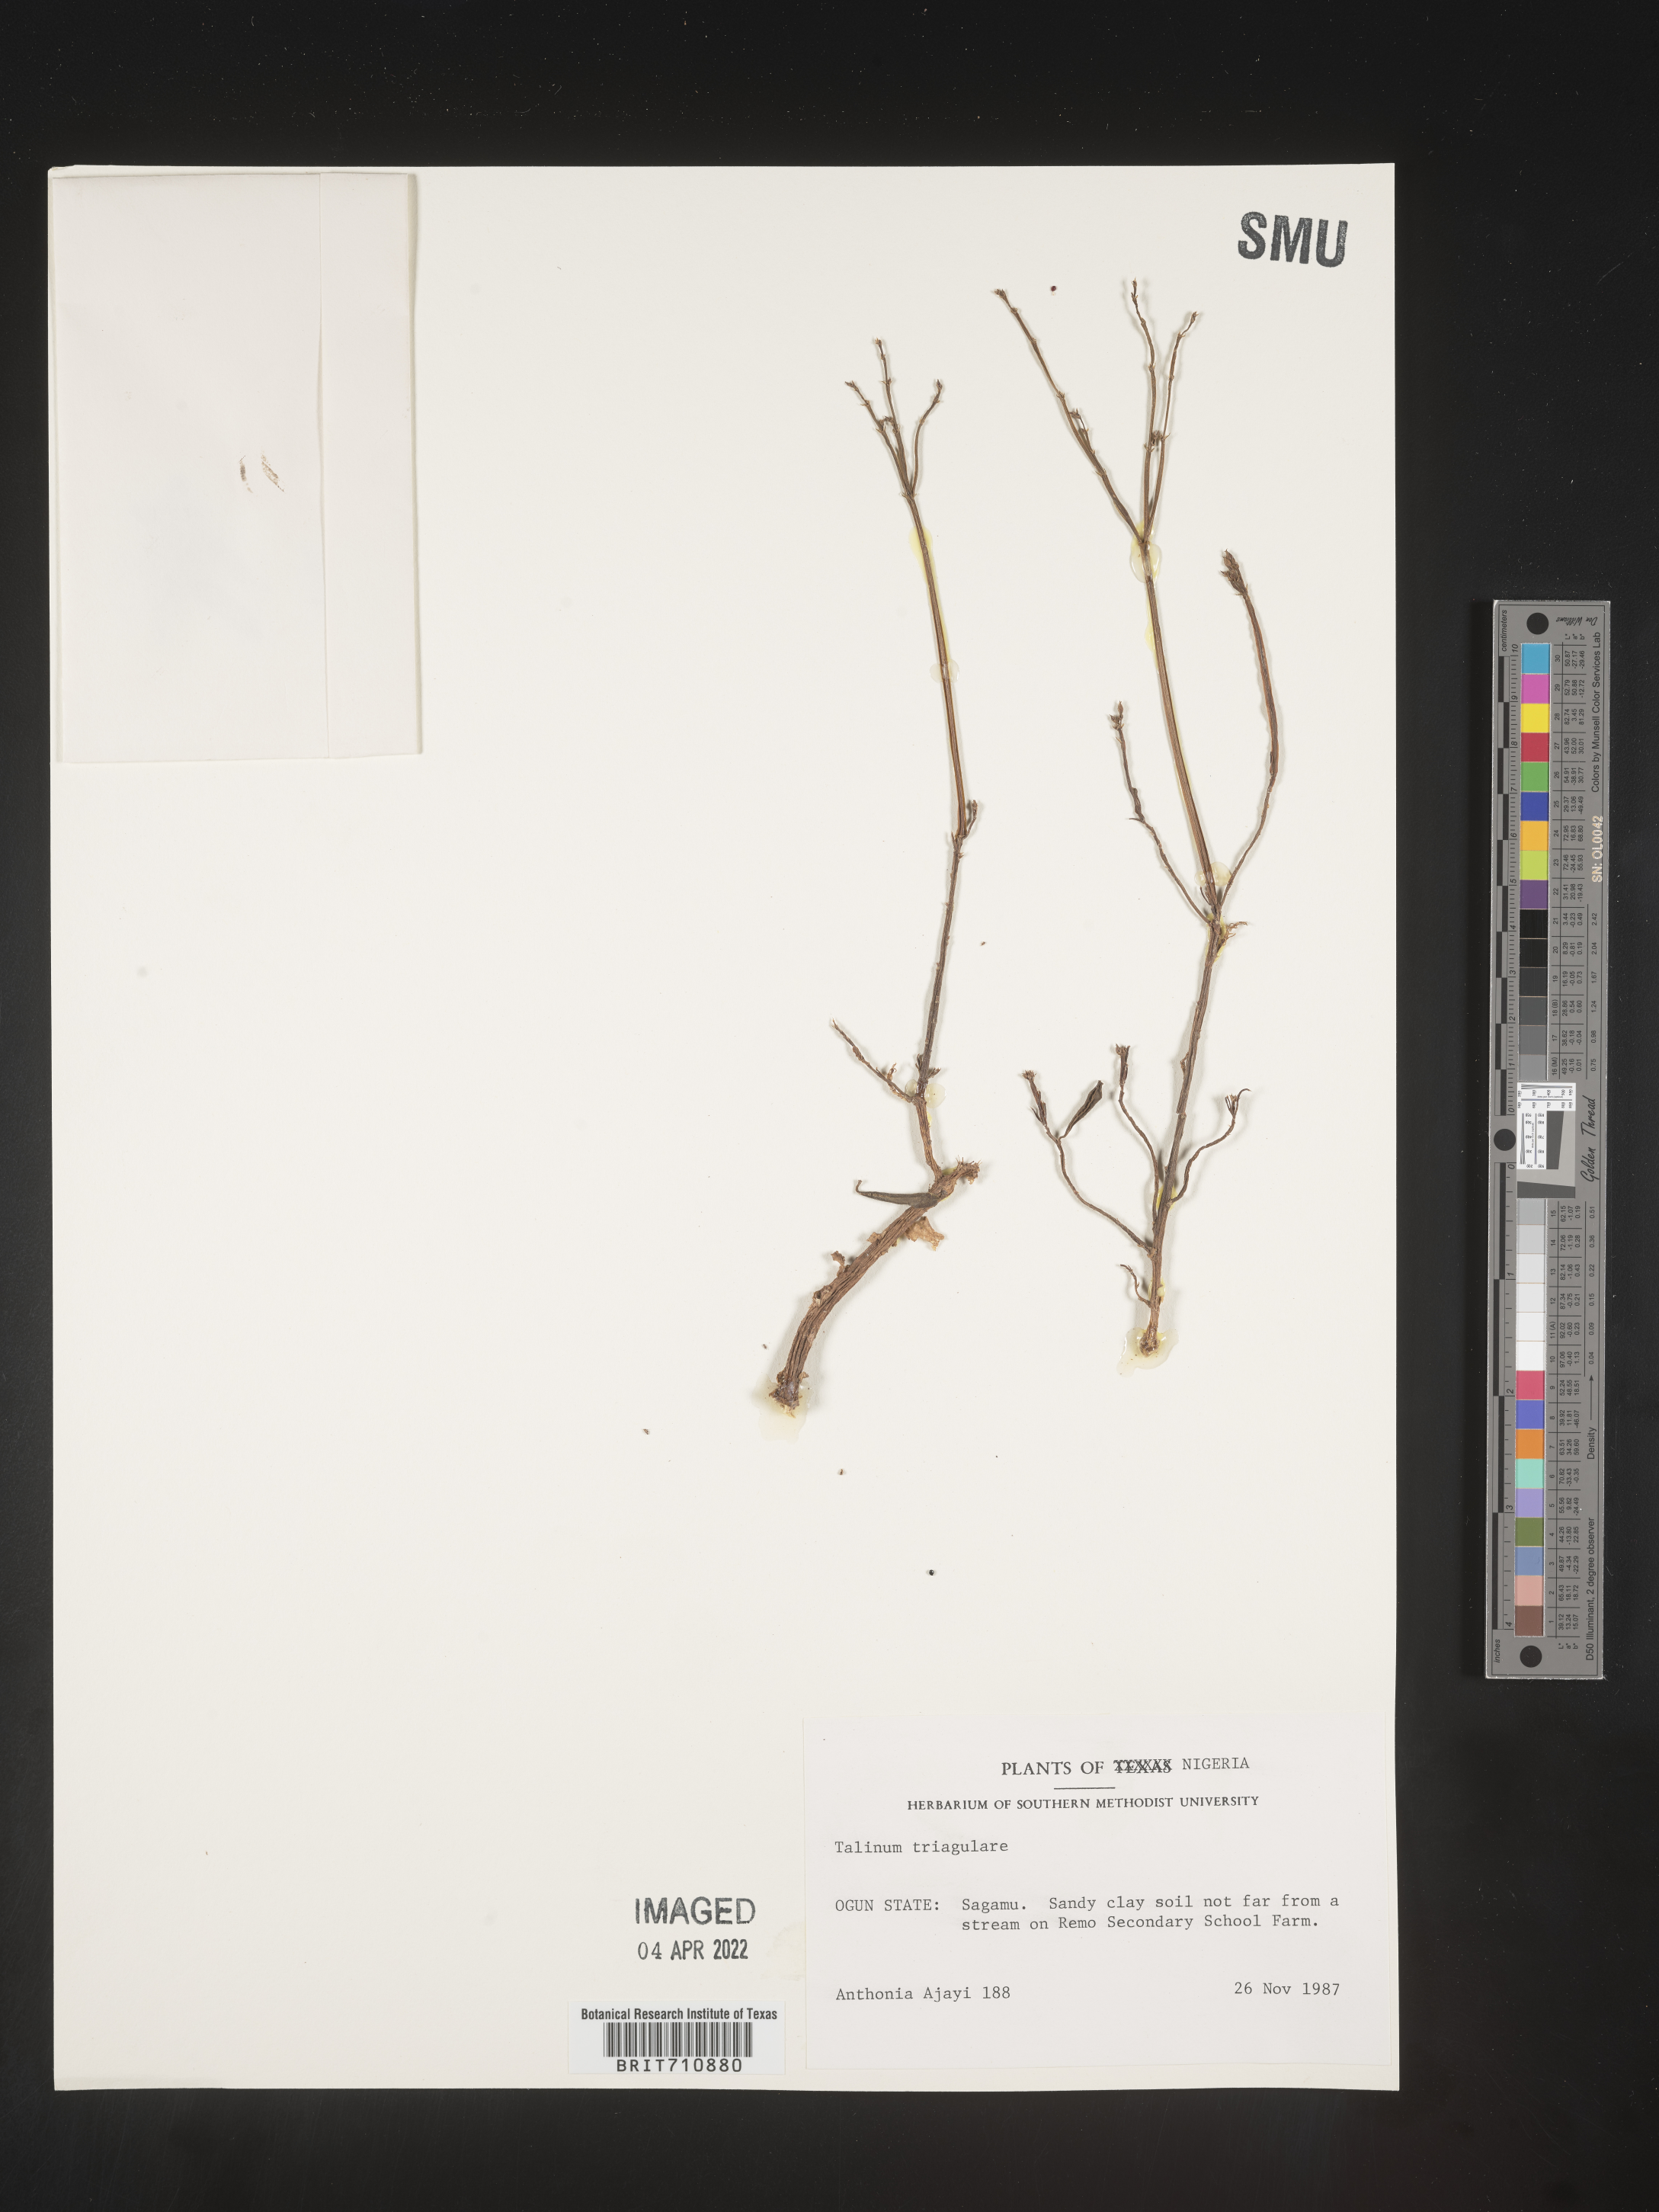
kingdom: Plantae
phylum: Tracheophyta
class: Magnoliopsida
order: Caryophyllales
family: Talinaceae
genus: Talinum
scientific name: Talinum
